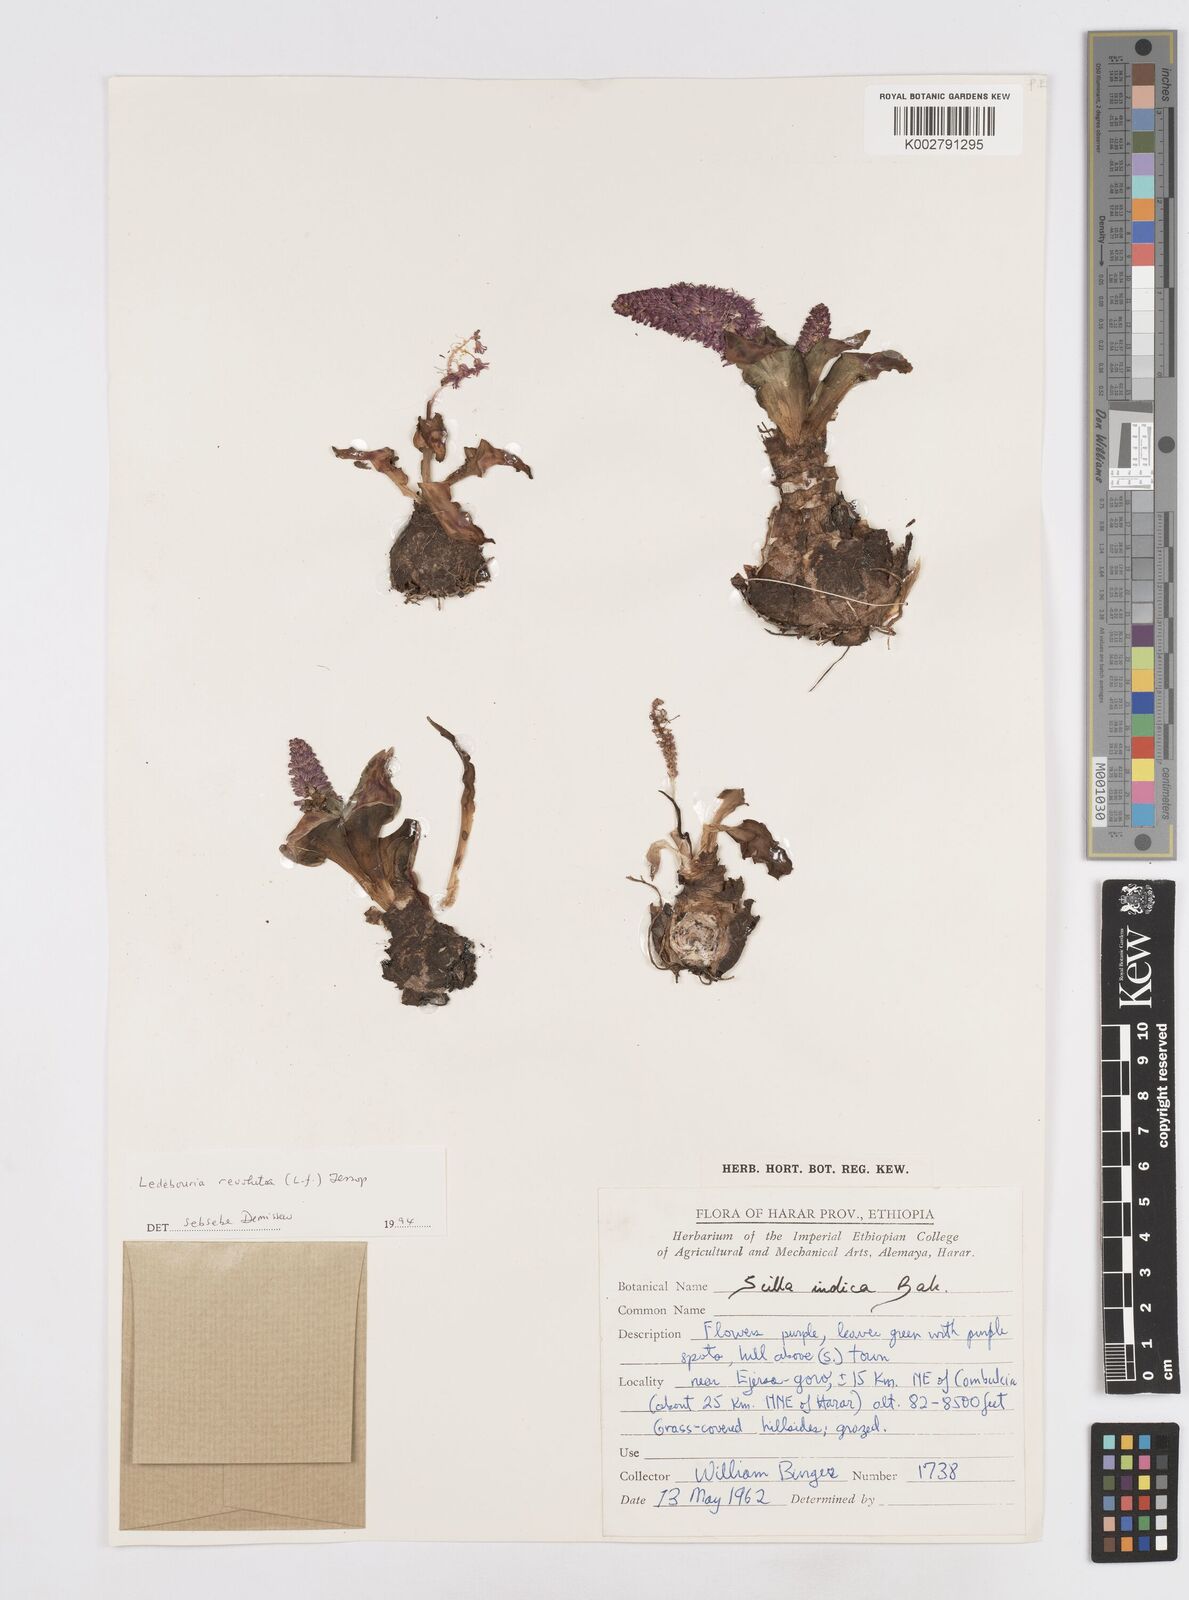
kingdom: Plantae
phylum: Tracheophyta
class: Liliopsida
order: Asparagales
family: Asparagaceae
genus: Ledebouria
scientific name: Ledebouria revoluta
